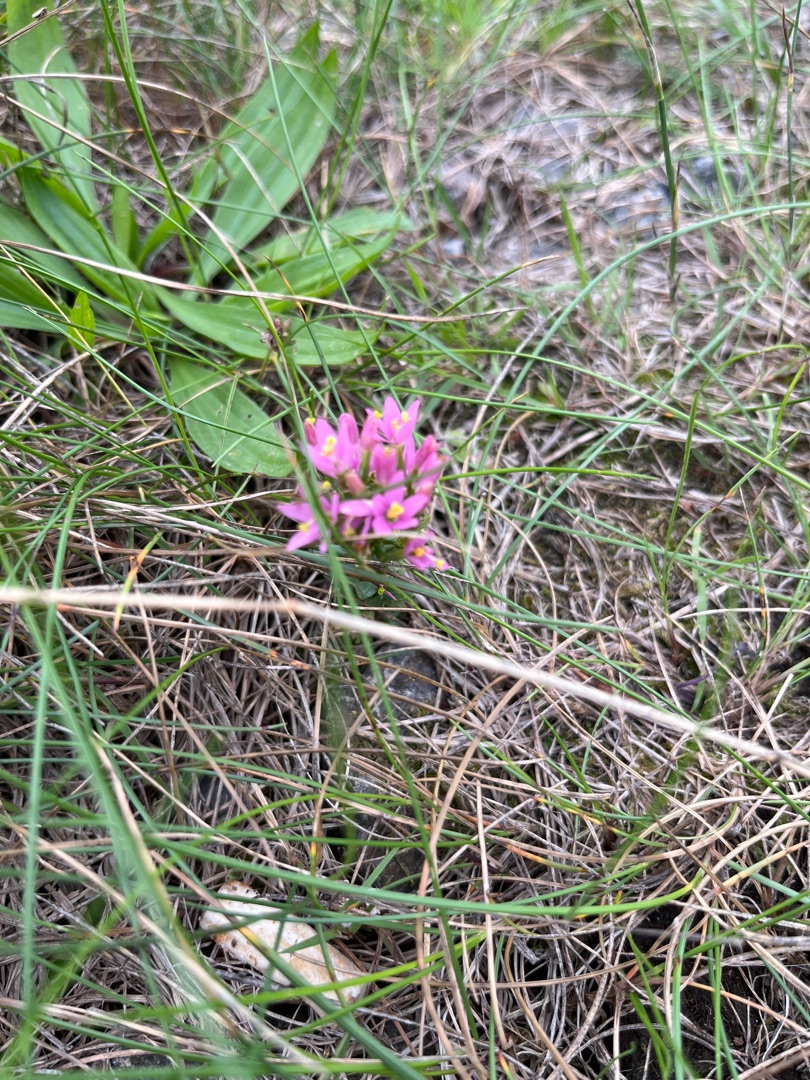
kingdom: Plantae
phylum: Tracheophyta
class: Magnoliopsida
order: Gentianales
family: Gentianaceae
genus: Centaurium
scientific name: Centaurium erythraea
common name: Mark-tusindgylden
